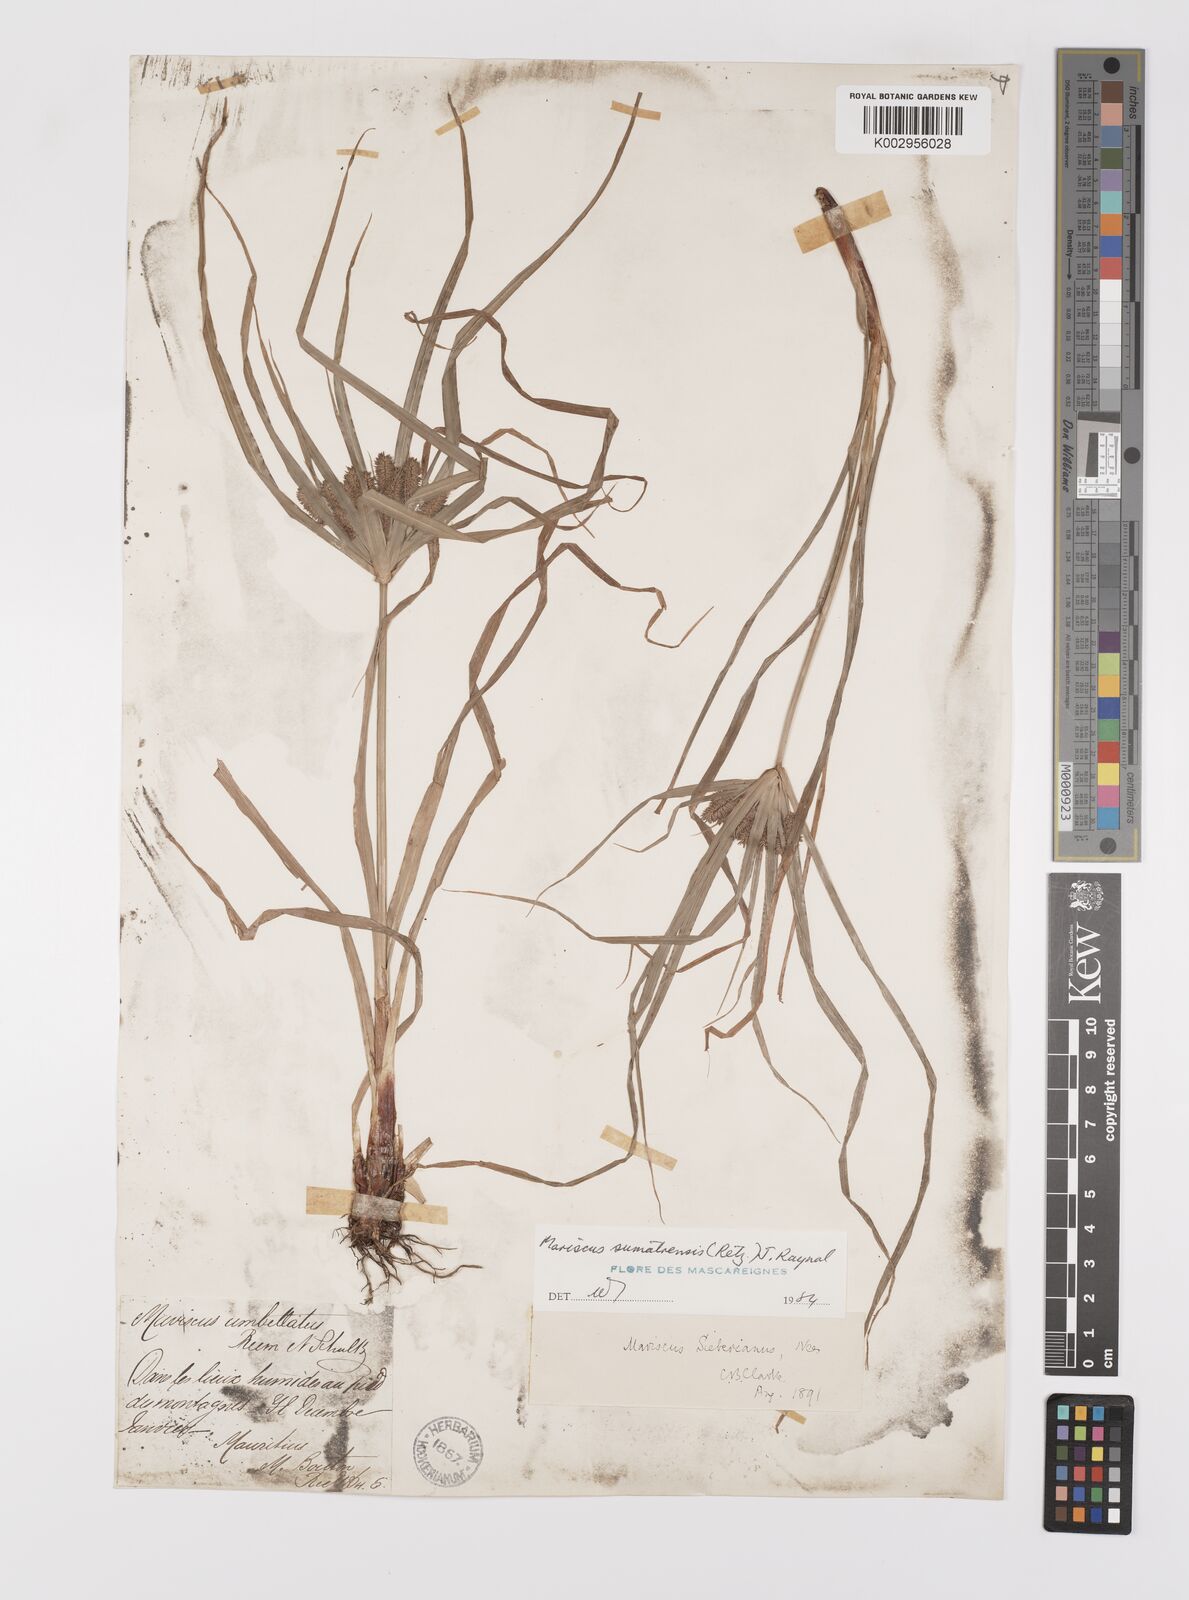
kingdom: Plantae
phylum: Tracheophyta
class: Liliopsida
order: Poales
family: Cyperaceae
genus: Cyperus
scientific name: Cyperus cyperoides
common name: Pacific island flat sedge
